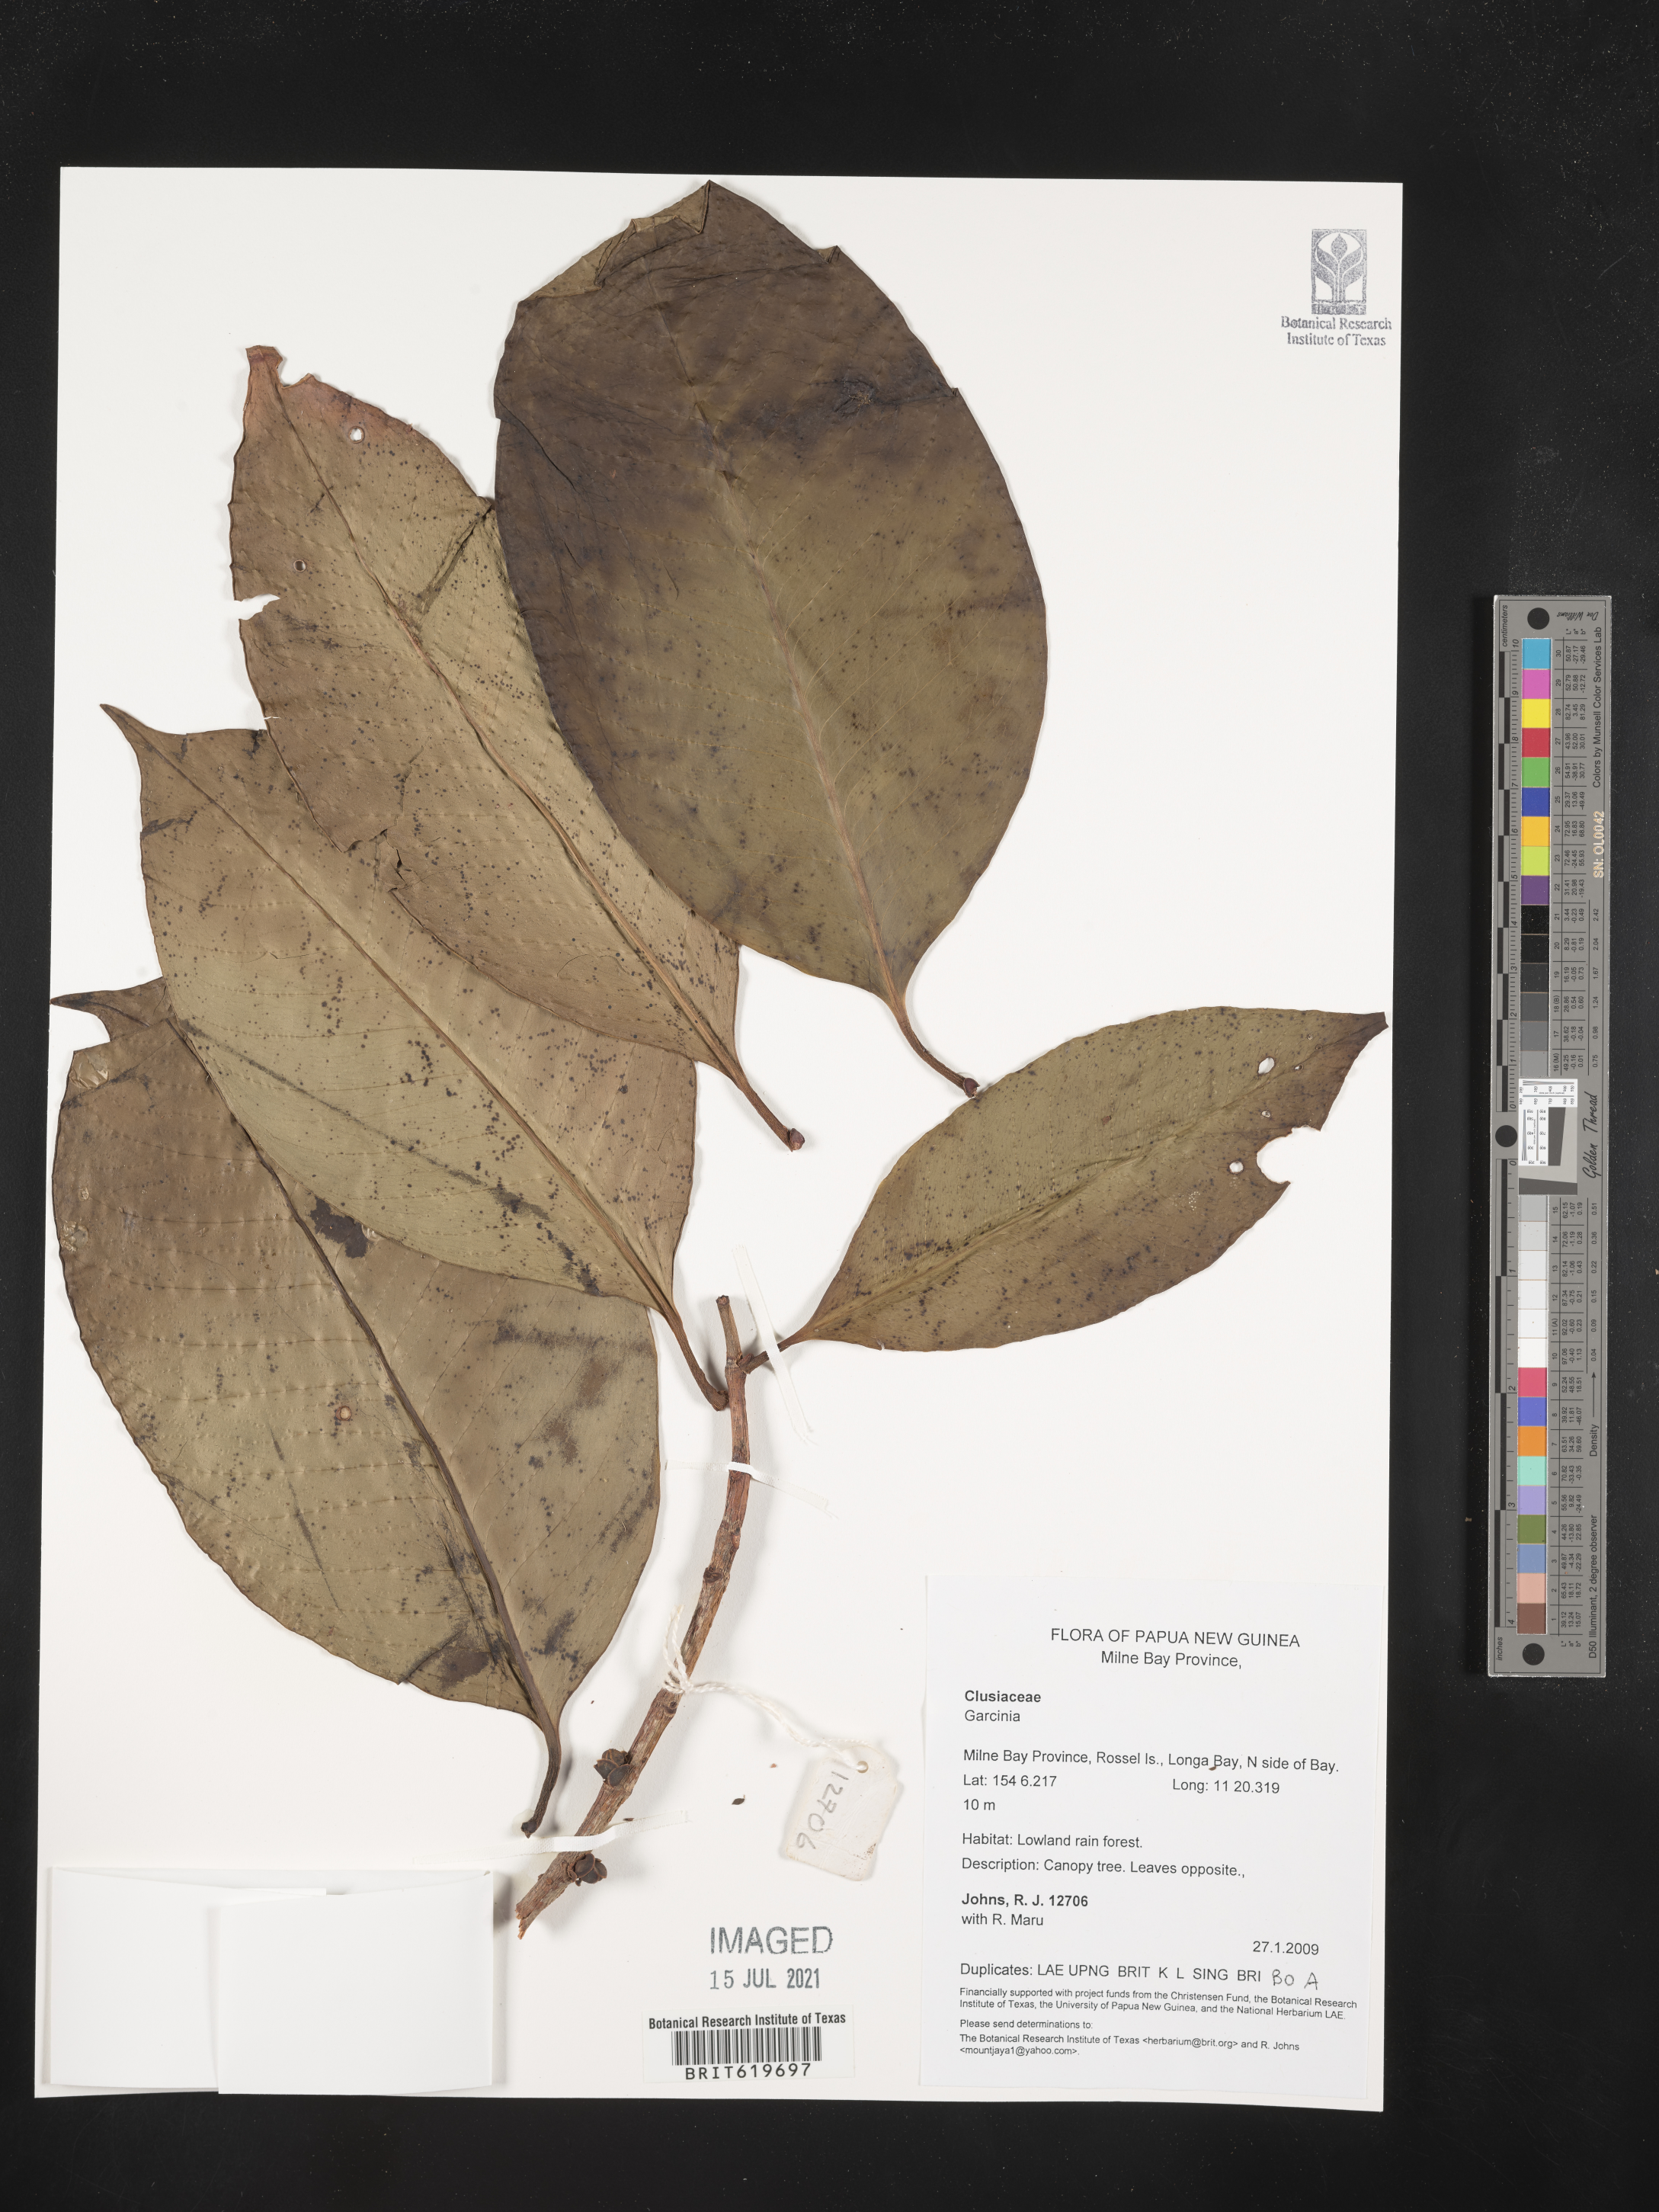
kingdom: Plantae
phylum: Tracheophyta
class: Magnoliopsida
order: Malpighiales
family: Clusiaceae
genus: Garcinia
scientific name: Garcinia
